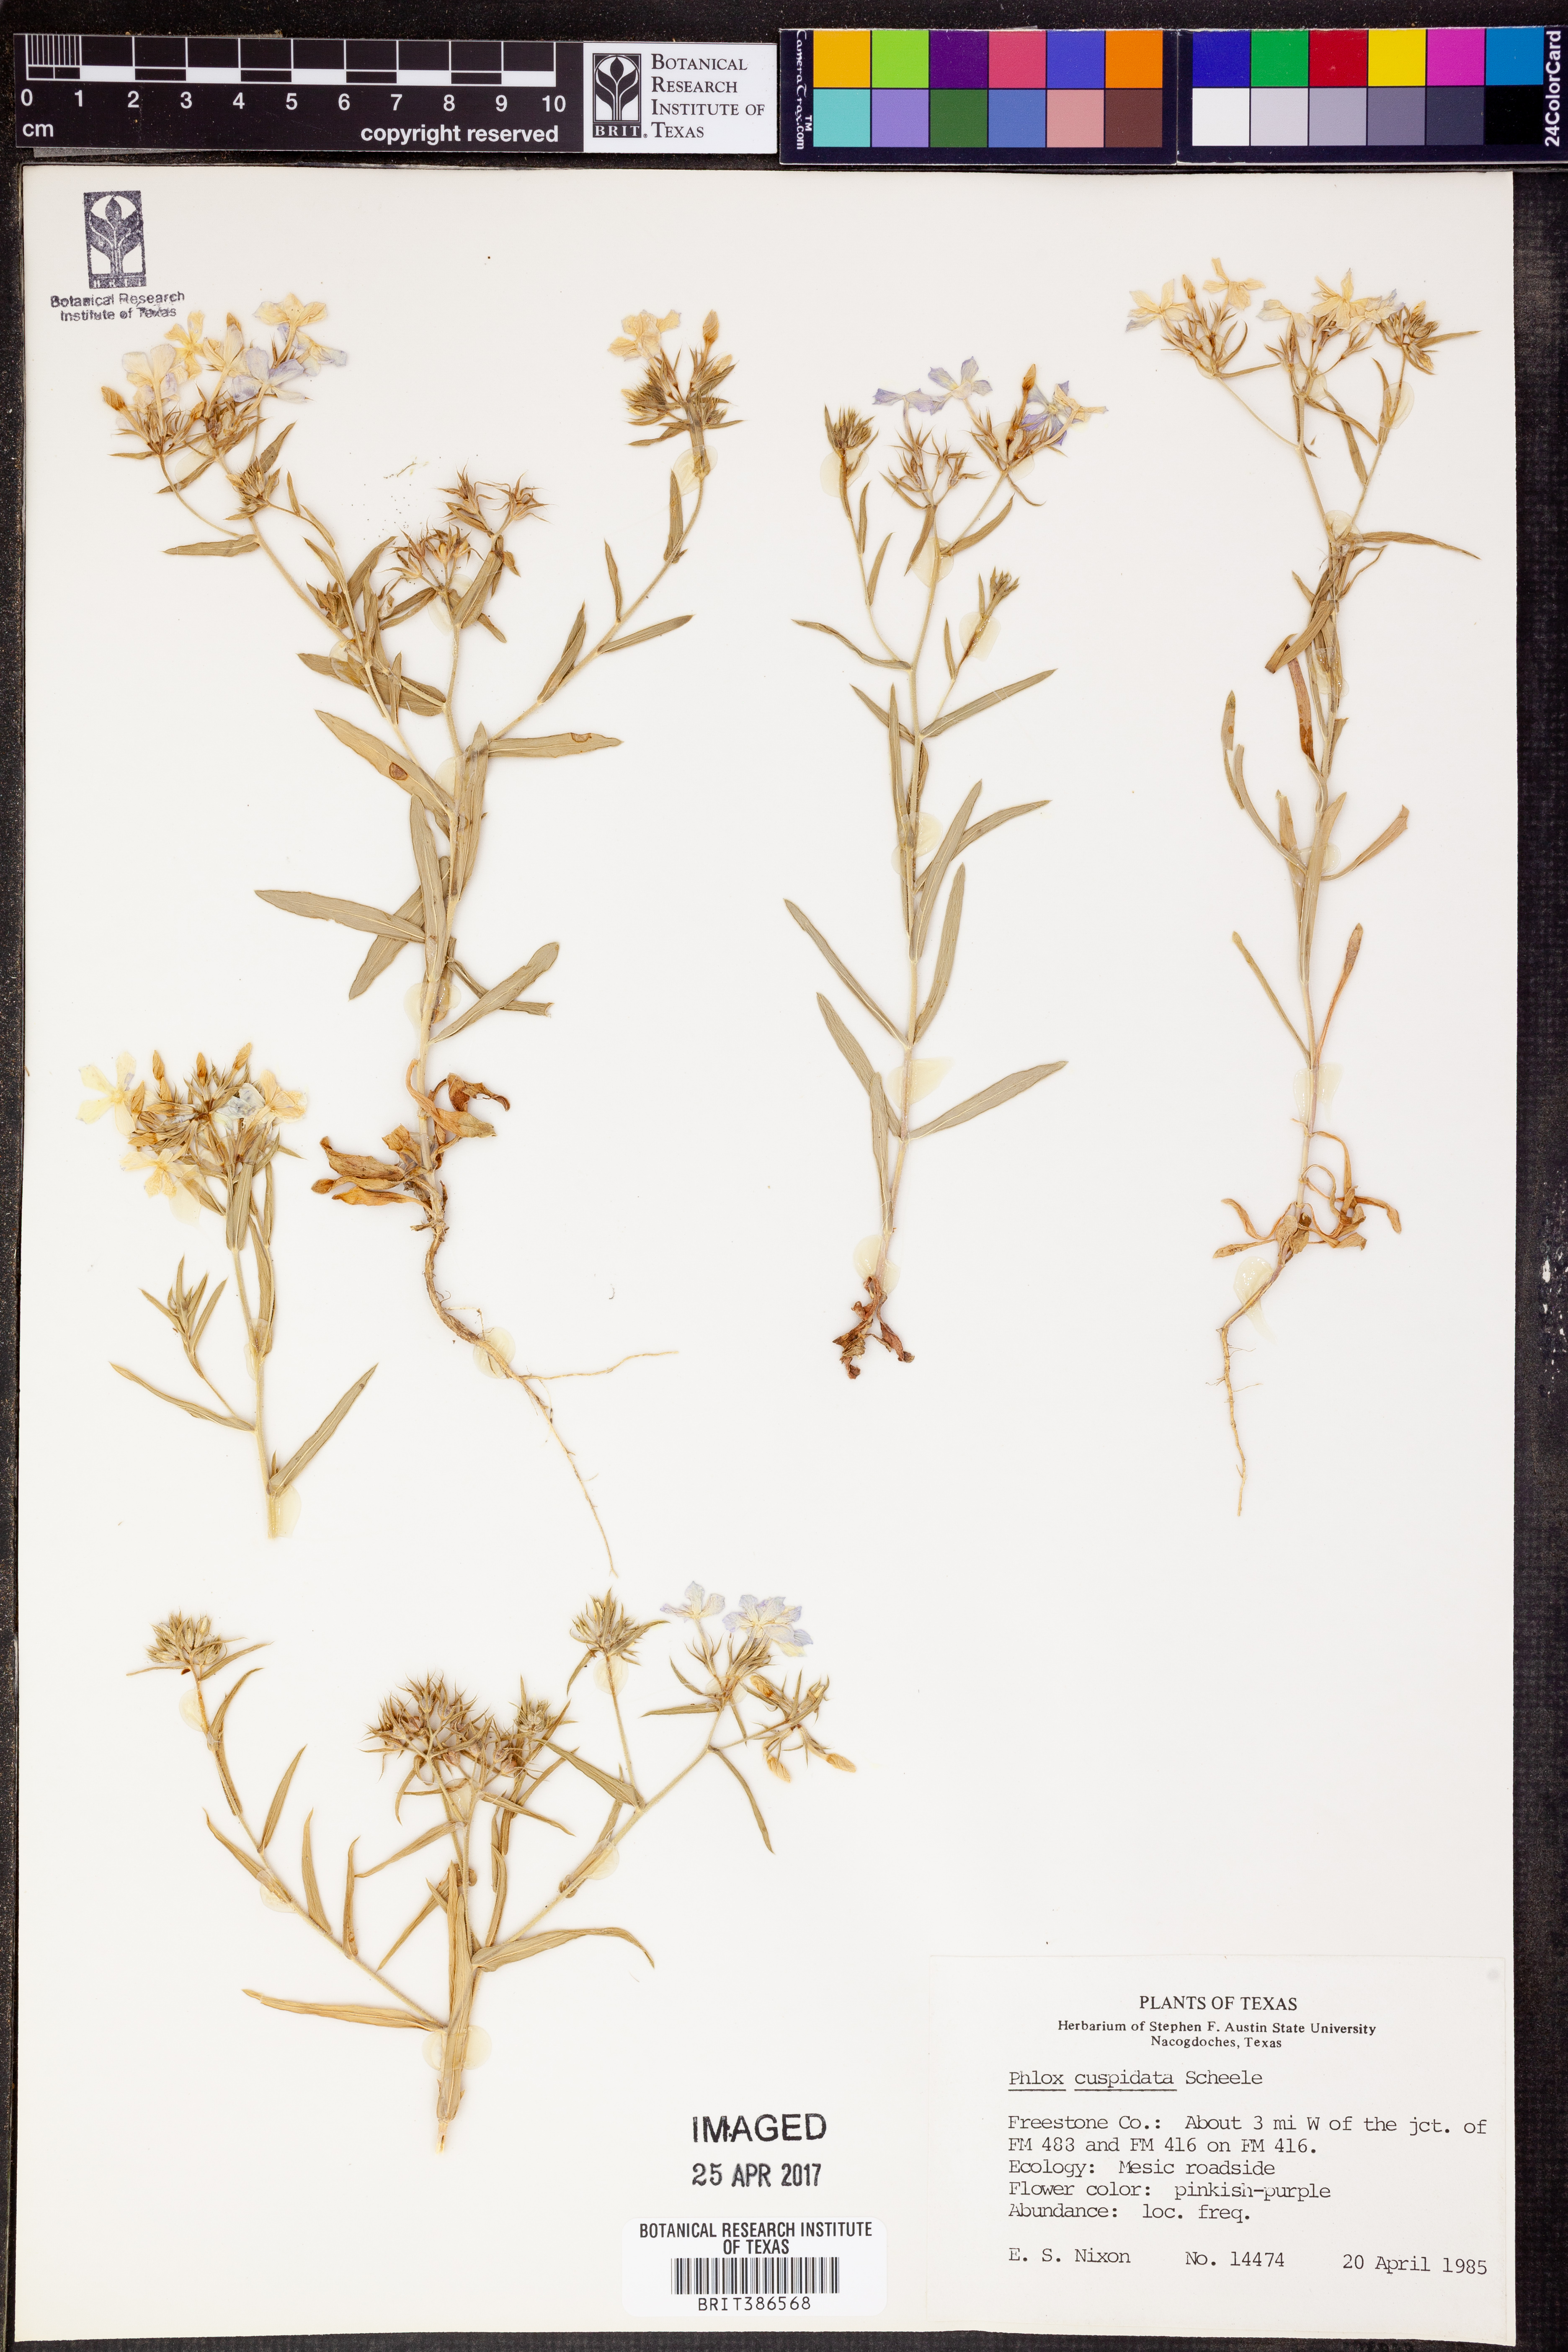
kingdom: Plantae
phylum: Tracheophyta
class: Magnoliopsida
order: Ericales
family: Polemoniaceae
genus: Phlox
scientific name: Phlox cuspidata
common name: Pointed phlox
